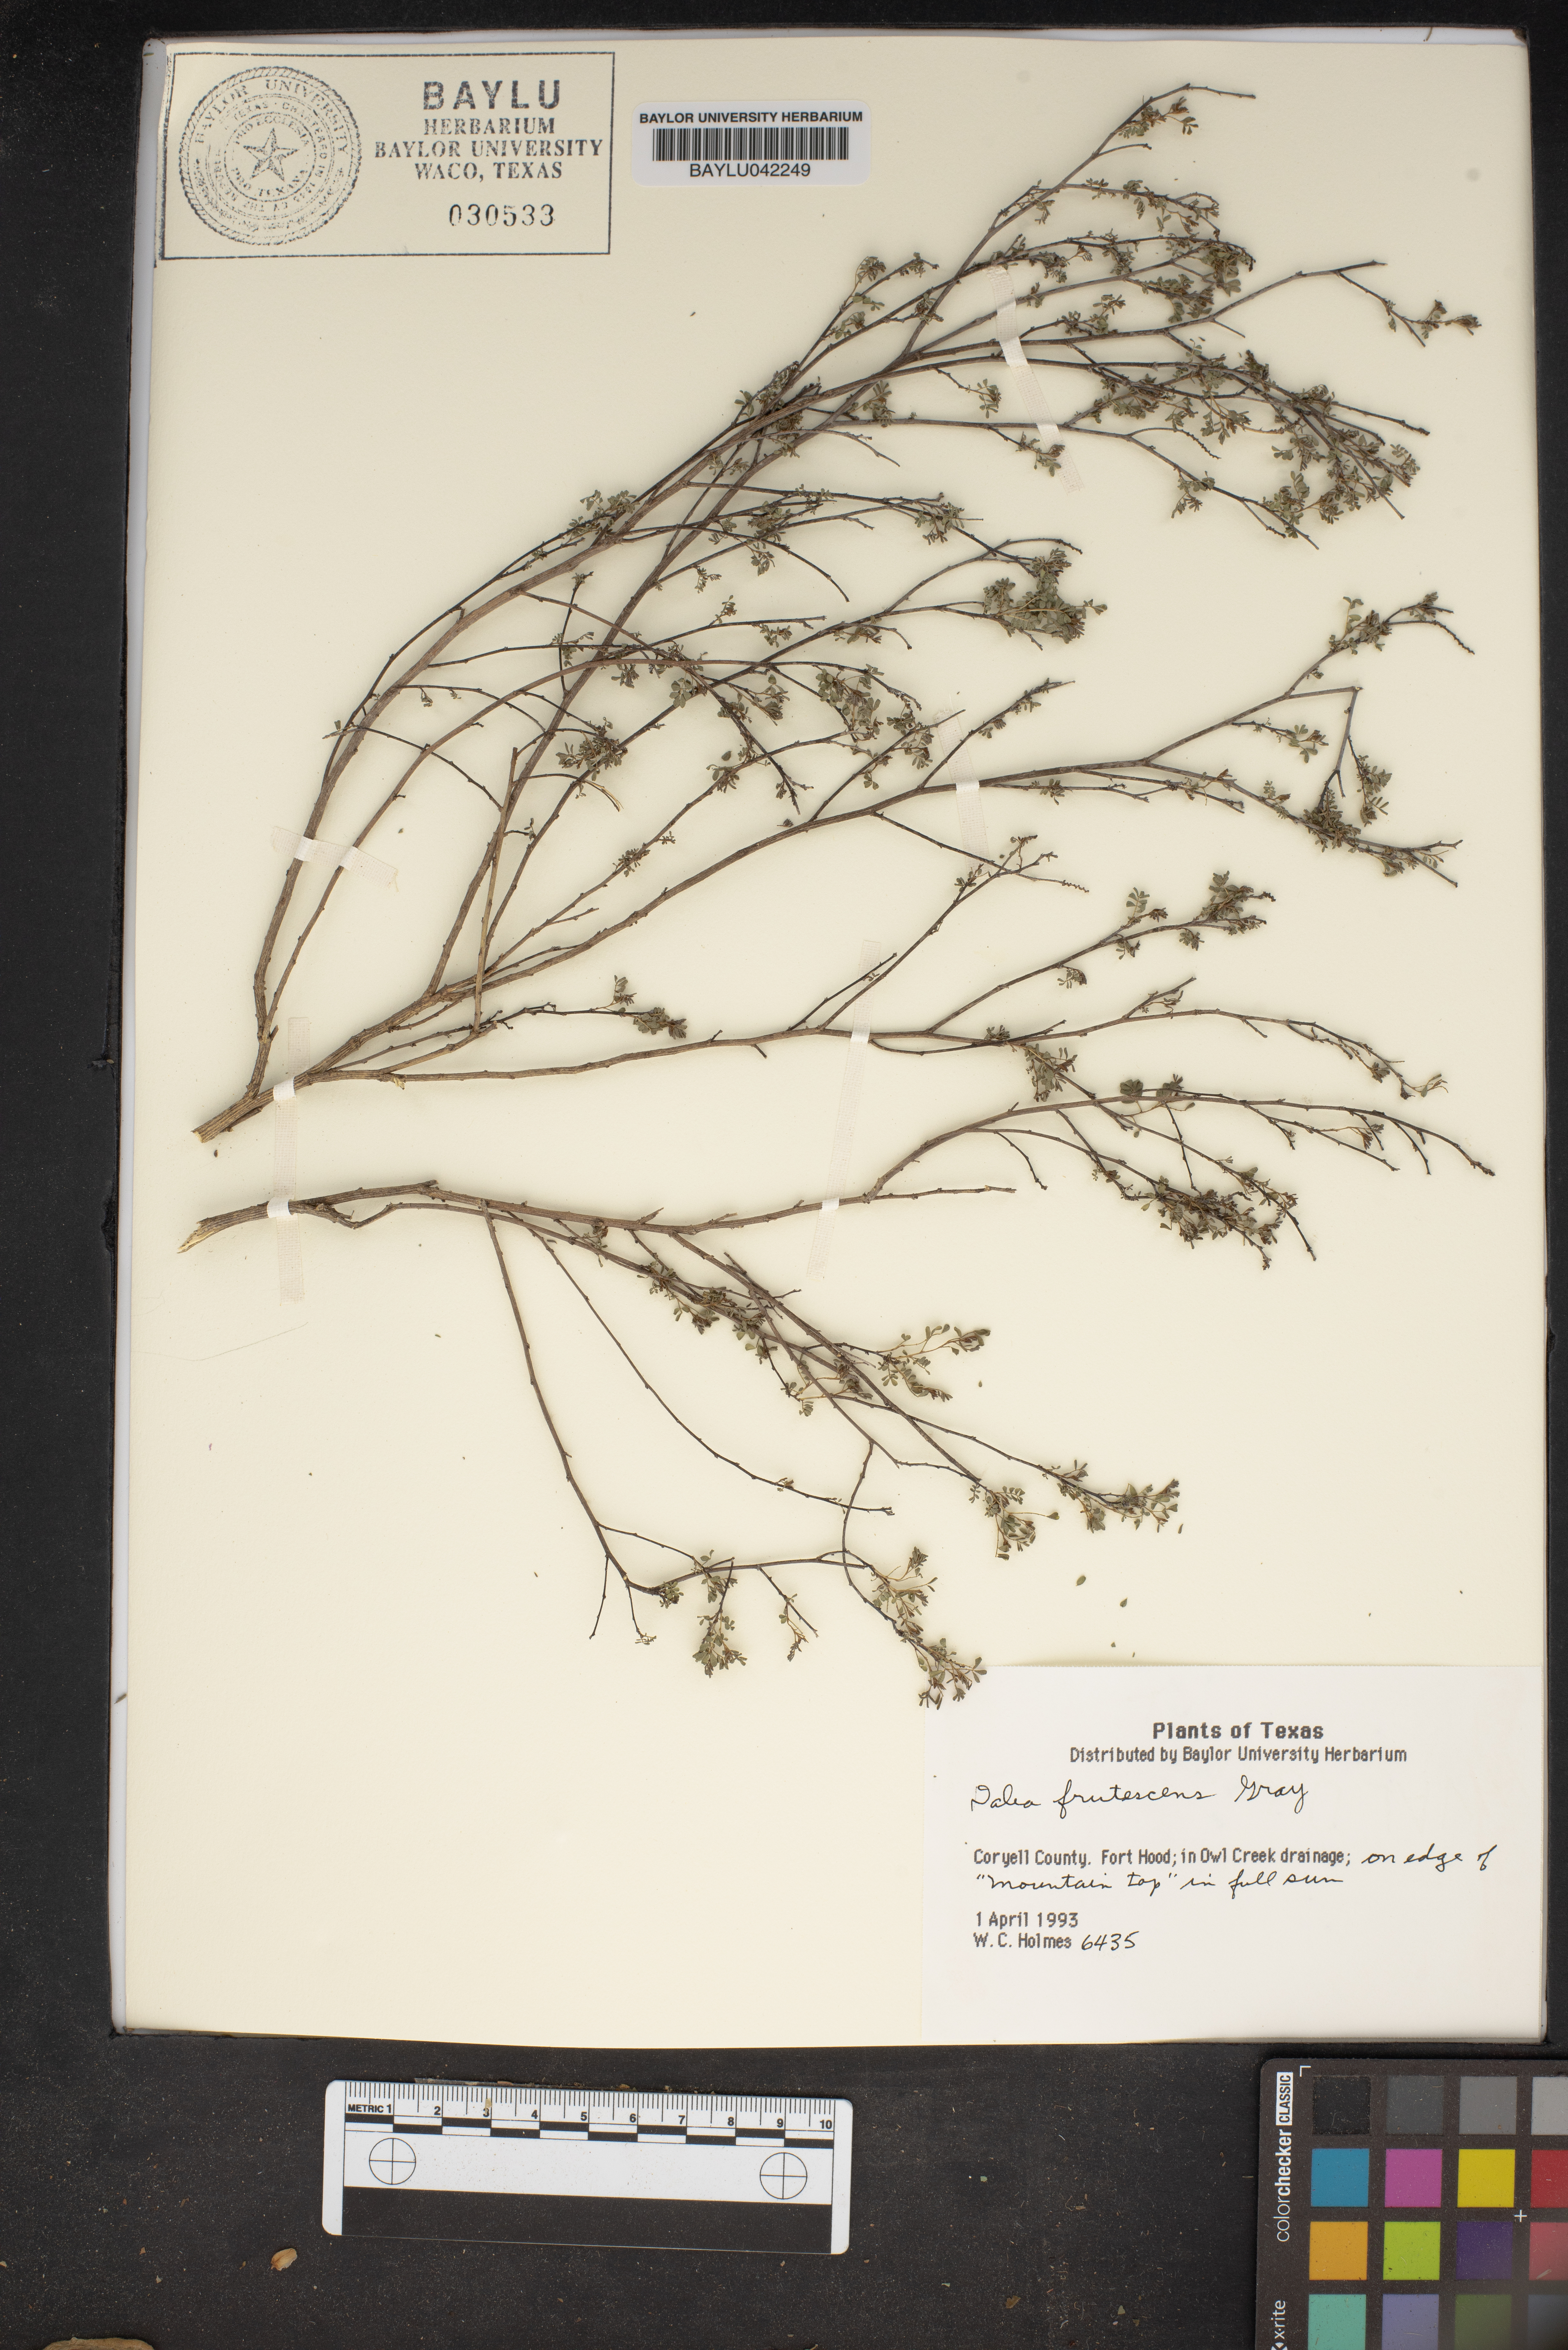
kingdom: Plantae
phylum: Tracheophyta
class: Magnoliopsida
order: Fabales
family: Fabaceae
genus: Dalea
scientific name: Dalea frutescens
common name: Black dalea
